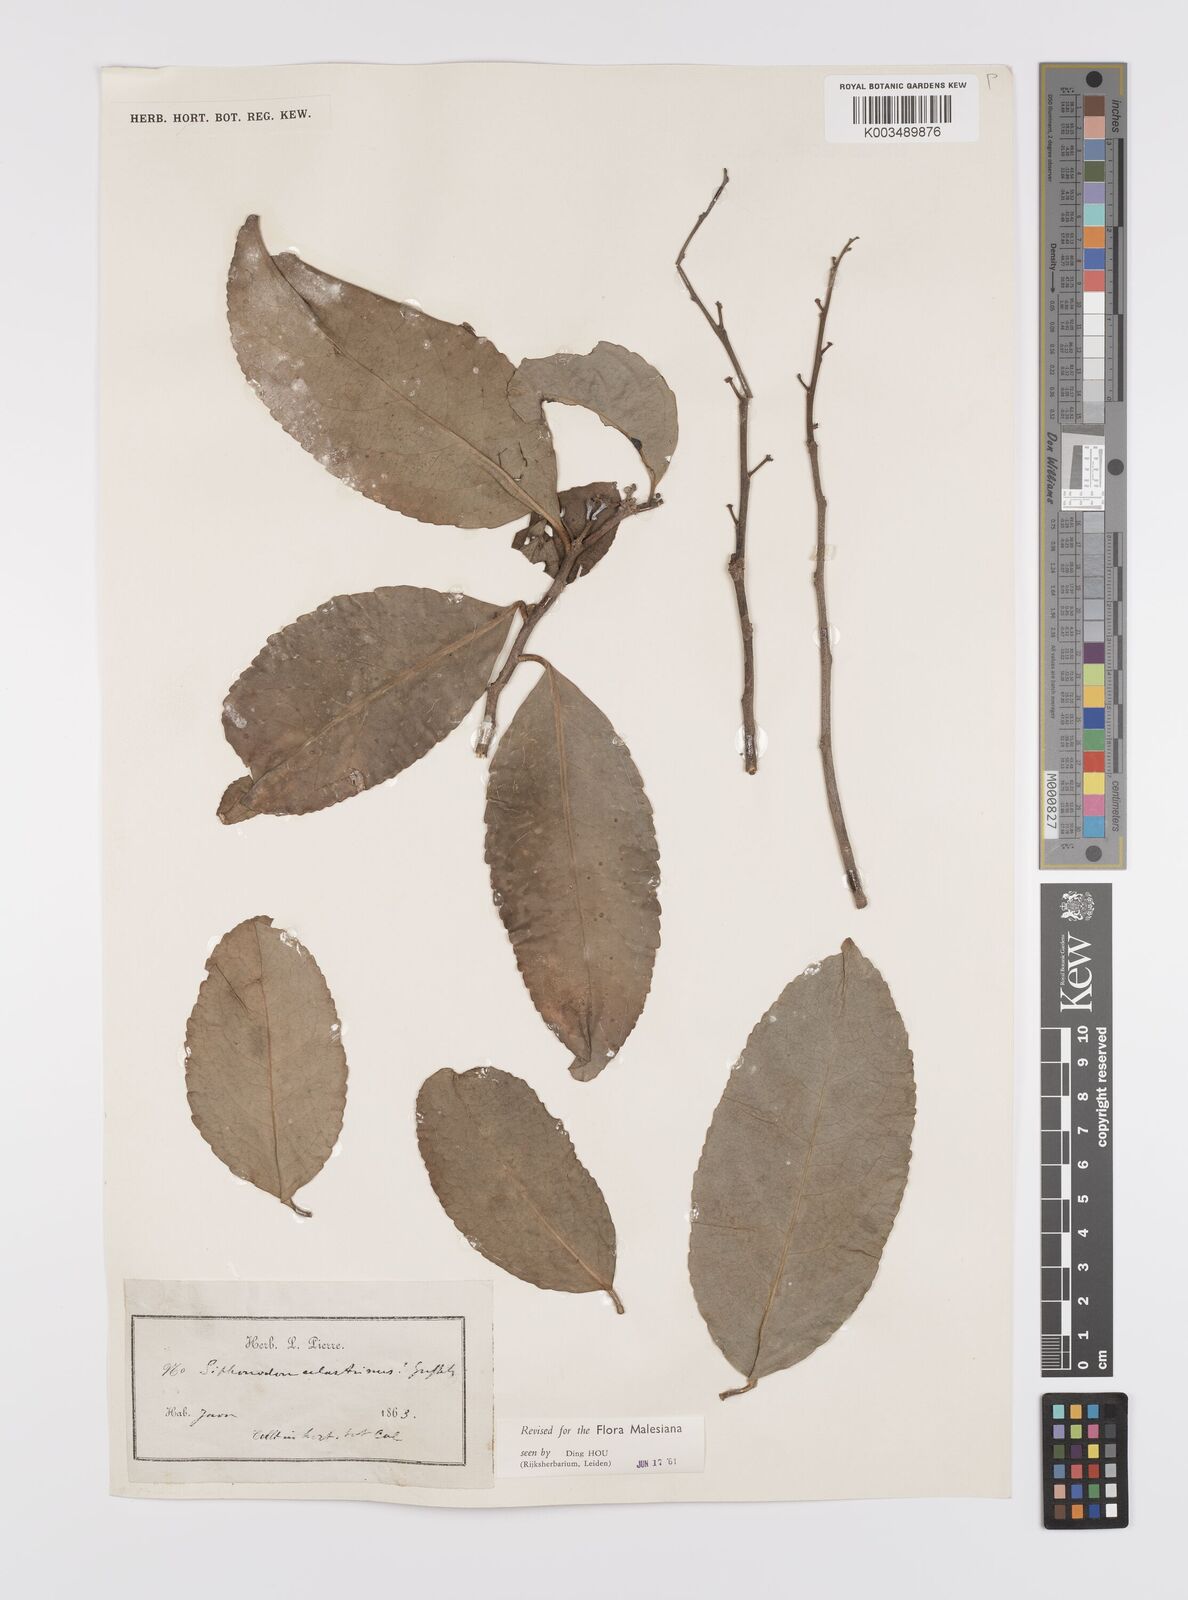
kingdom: Plantae
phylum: Tracheophyta
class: Magnoliopsida
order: Celastrales
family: Celastraceae
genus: Siphonodon
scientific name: Siphonodon celastrineus
